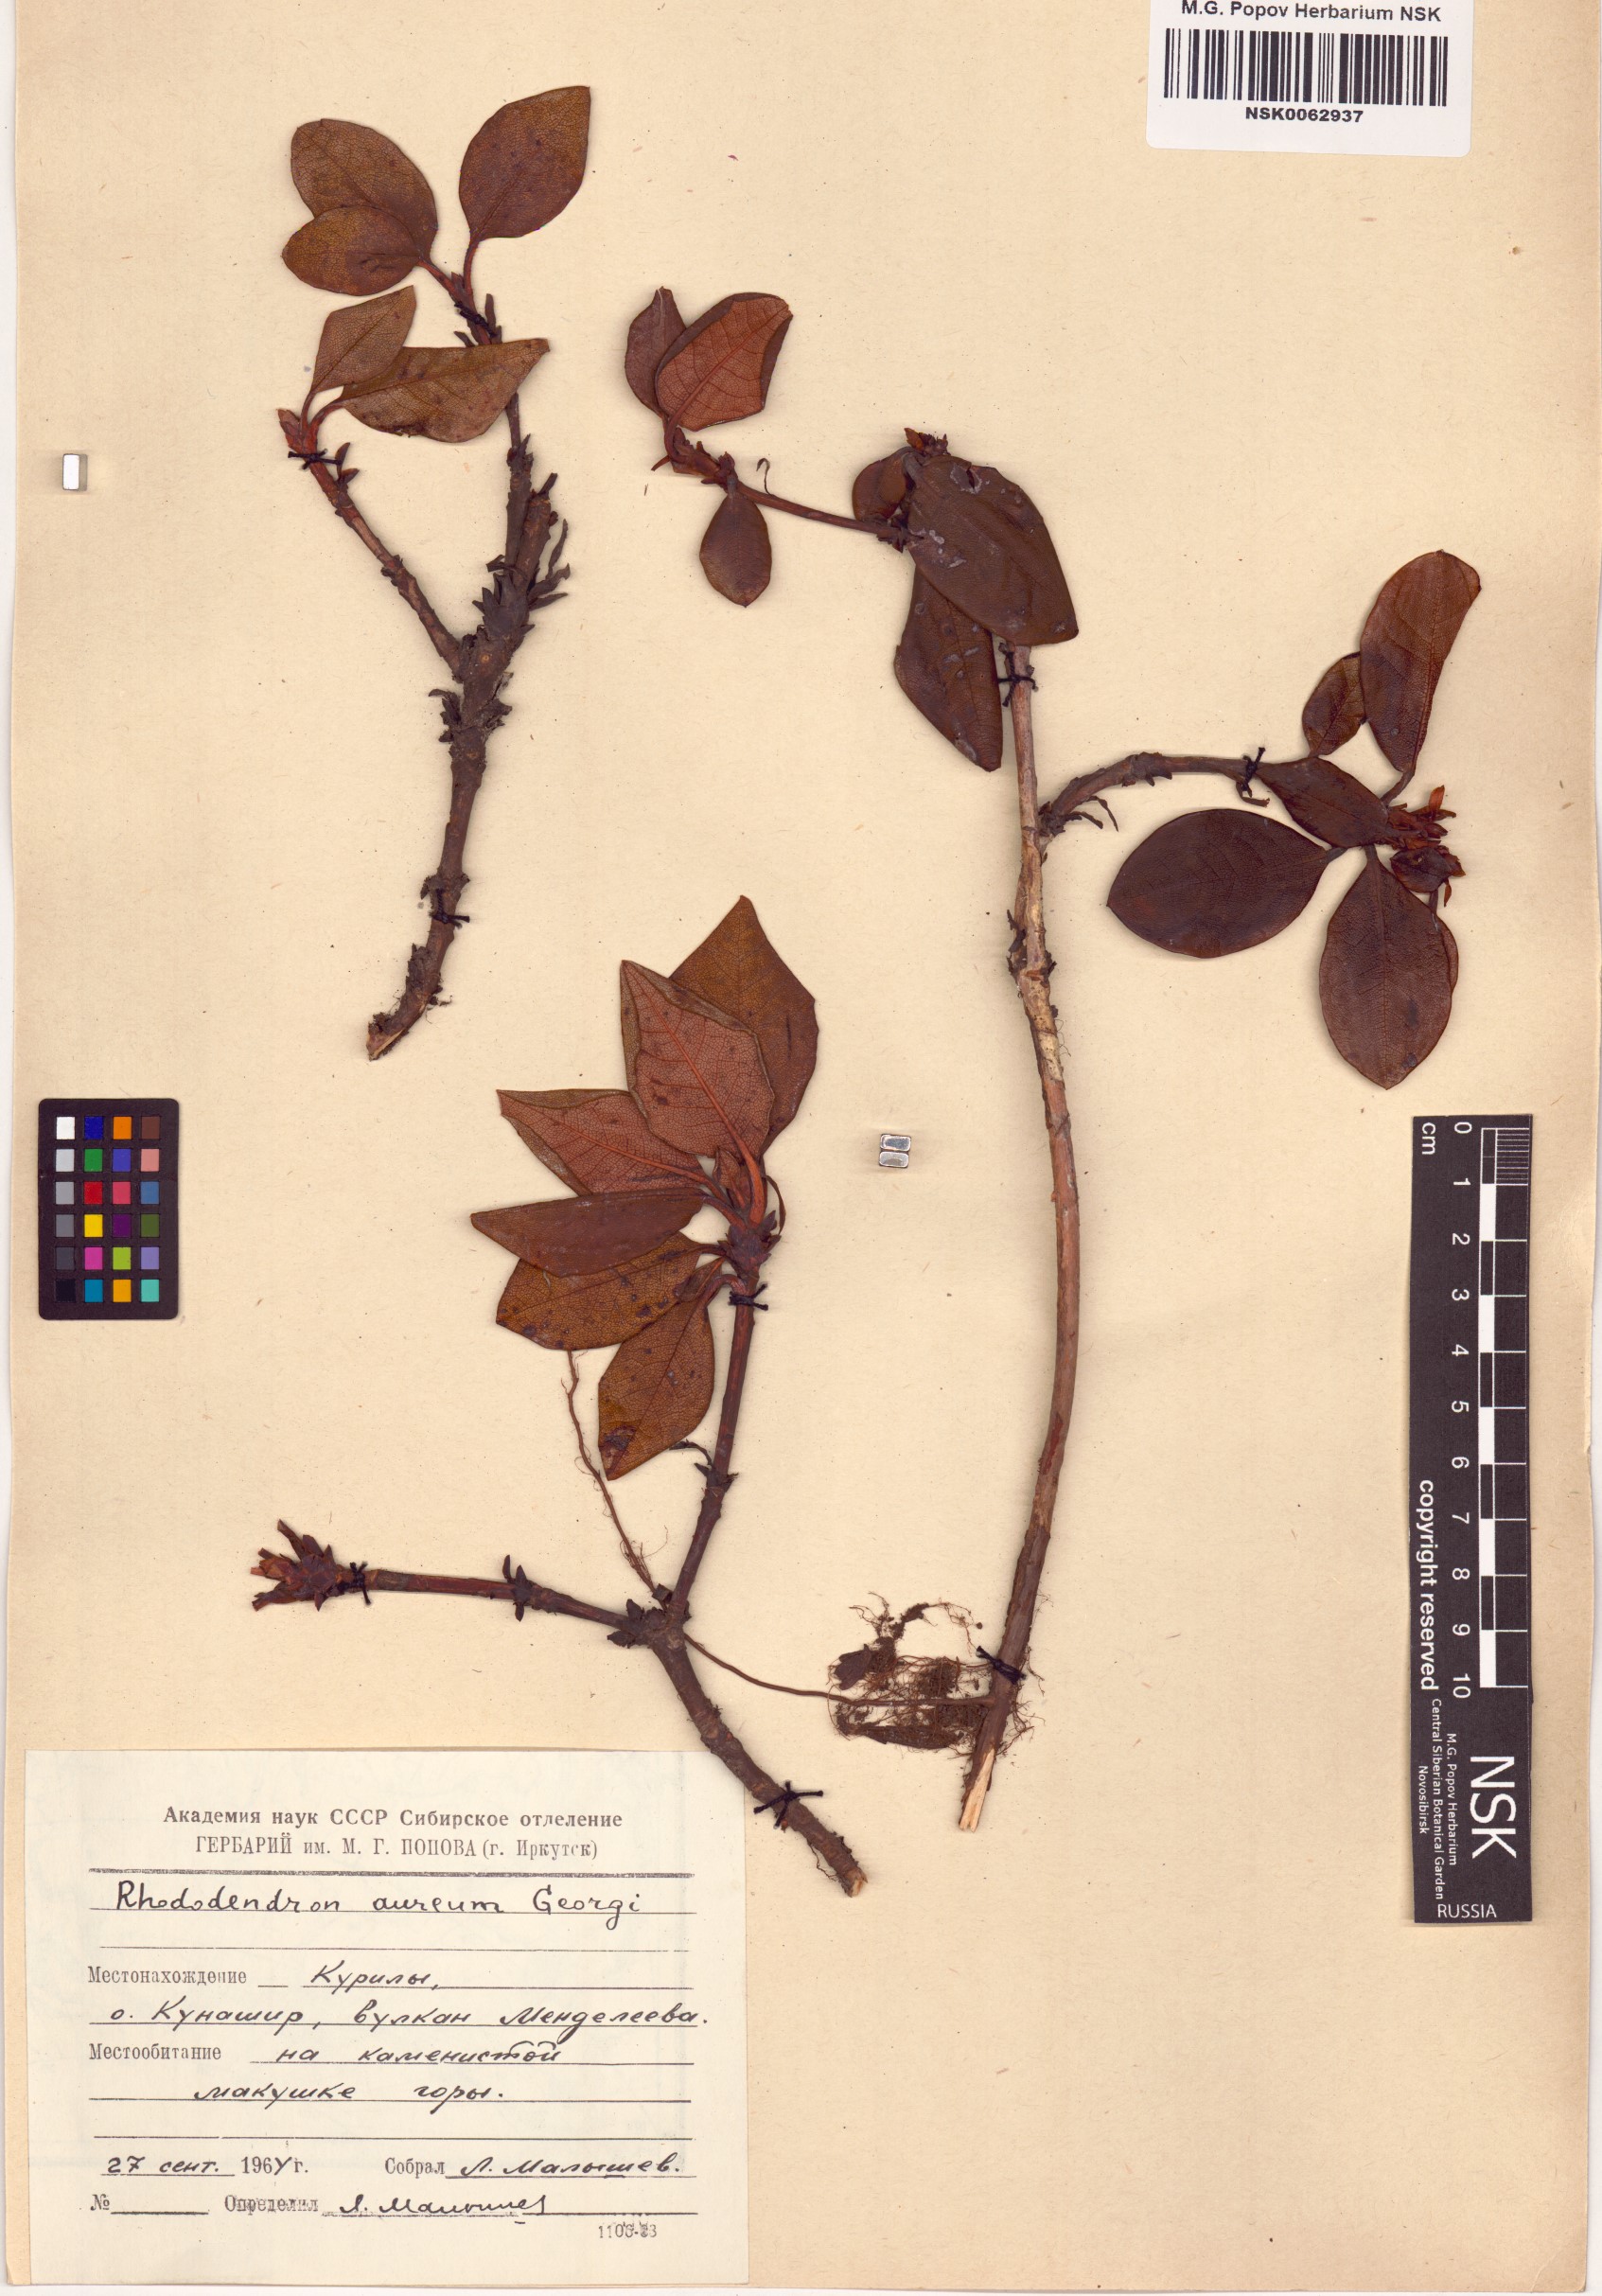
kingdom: Plantae
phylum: Tracheophyta
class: Magnoliopsida
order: Ericales
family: Ericaceae
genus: Rhododendron
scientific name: Rhododendron aureum
